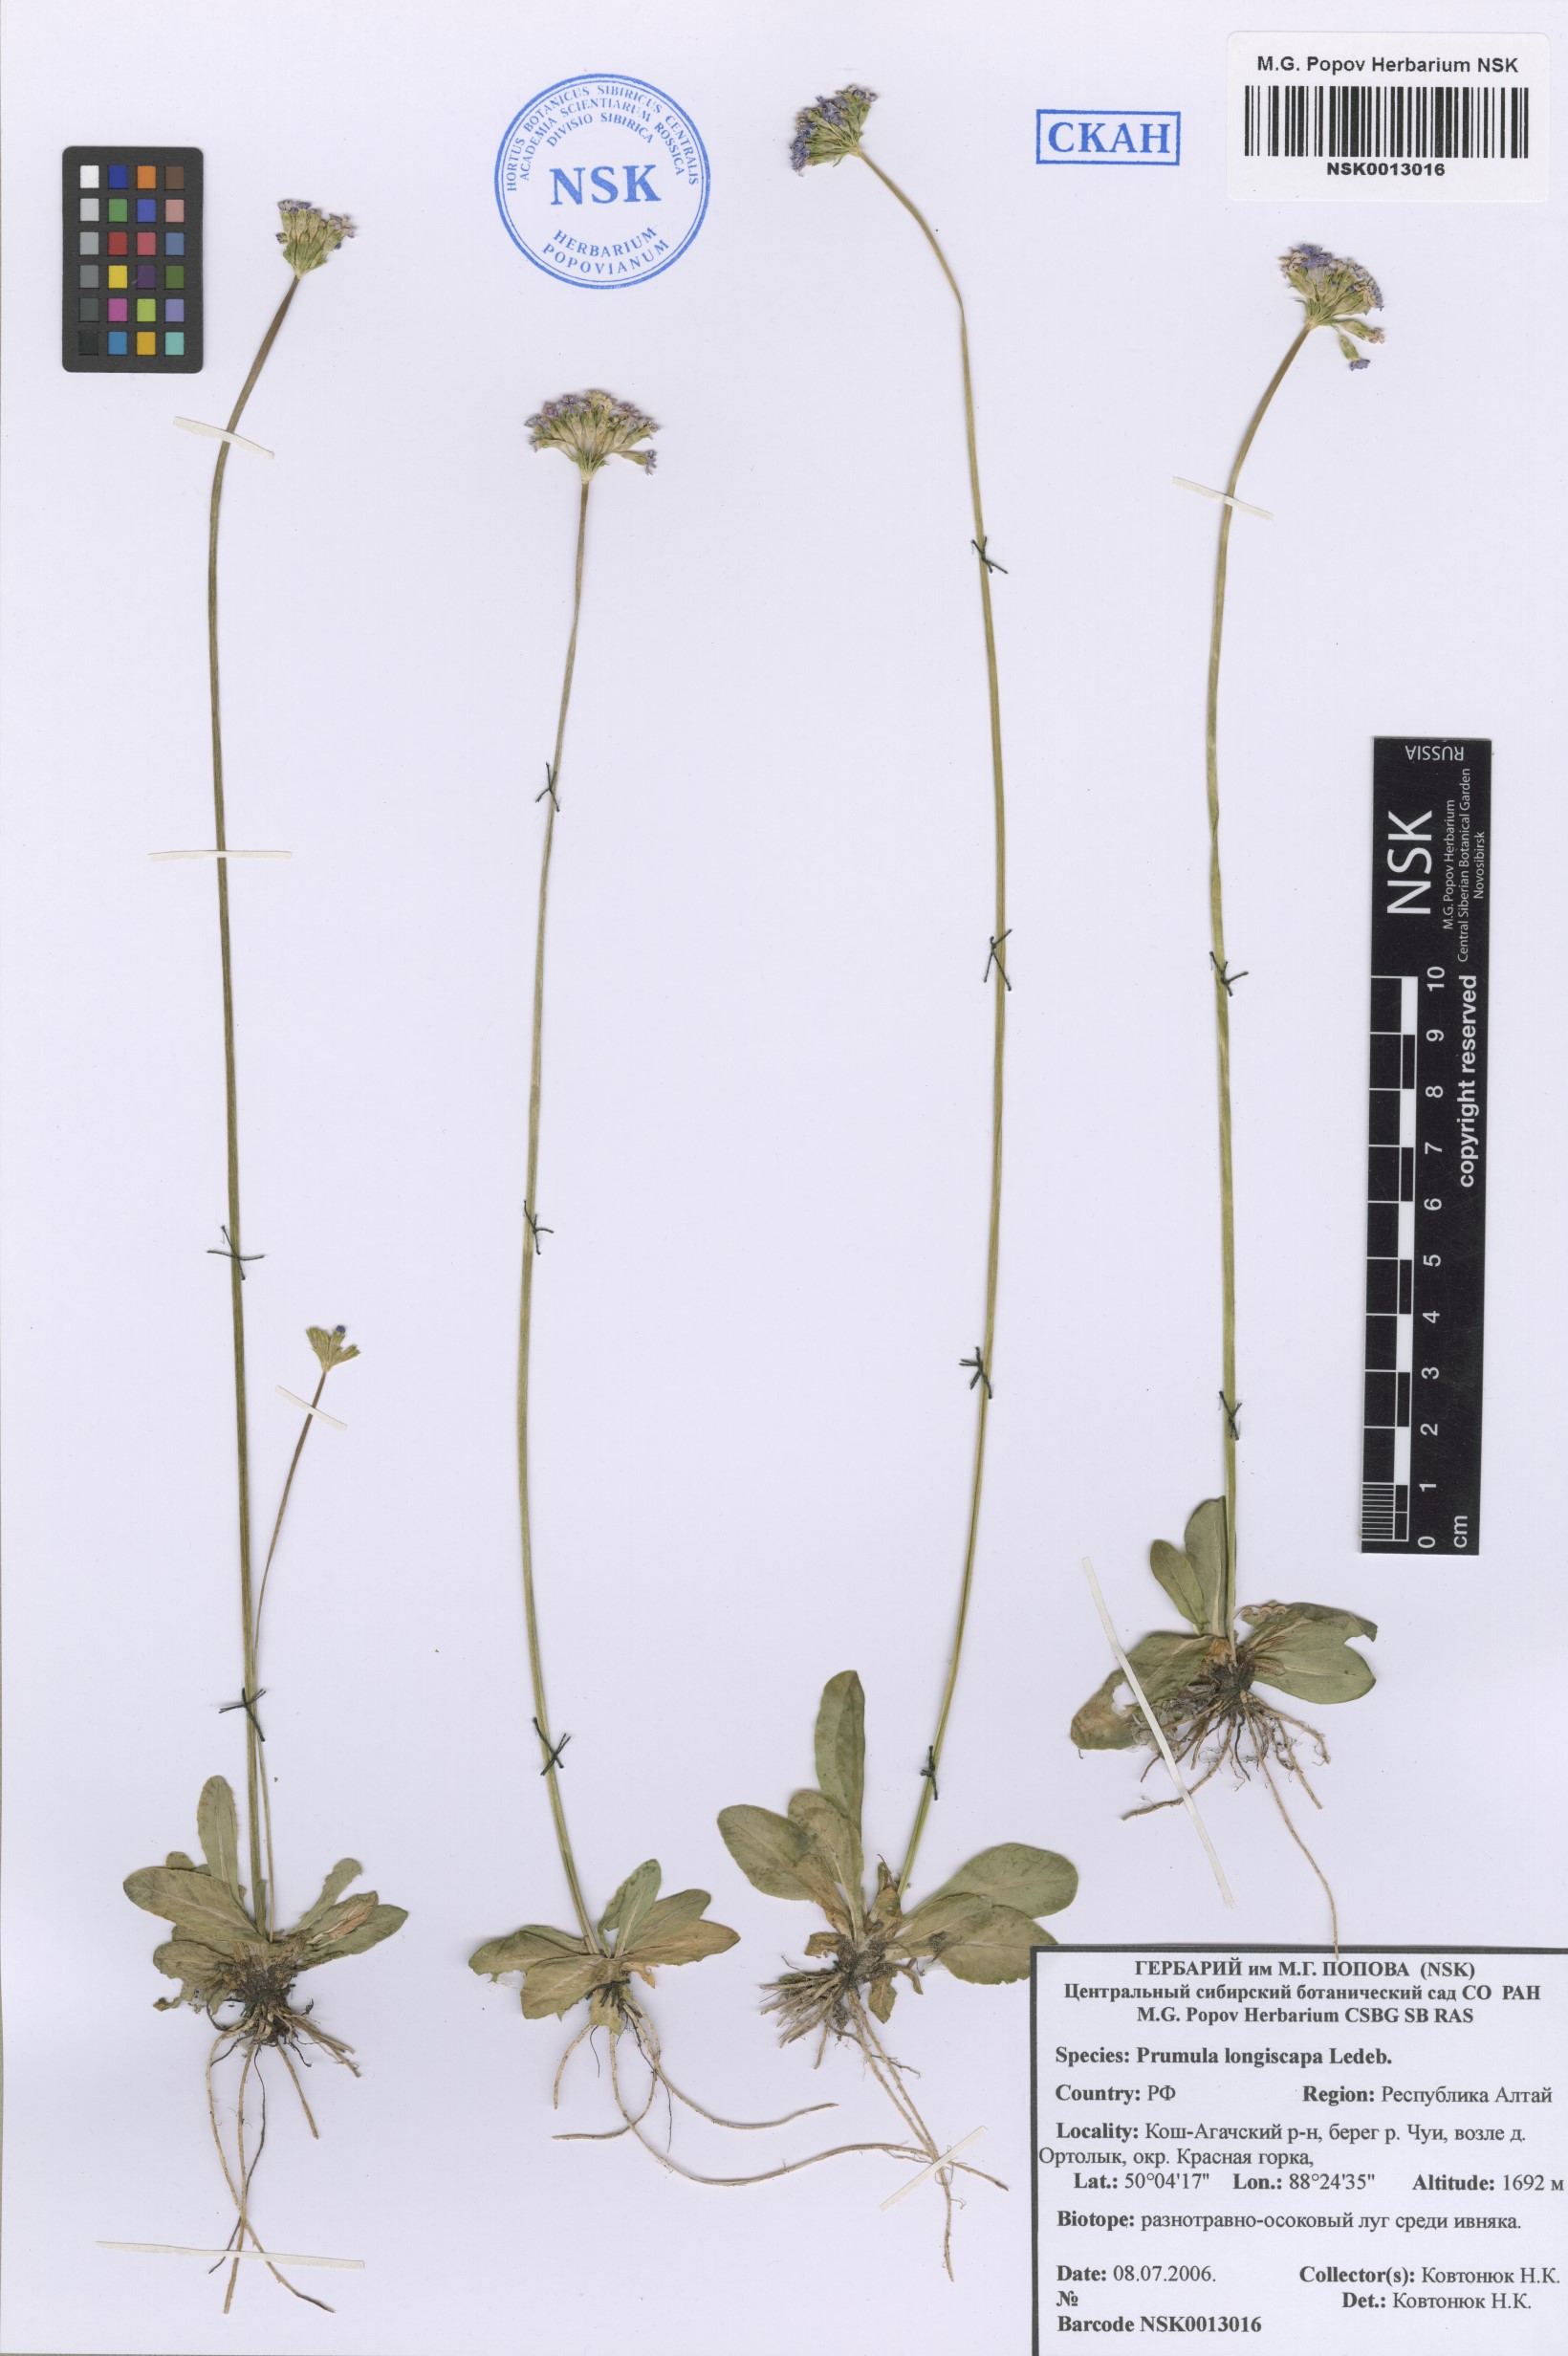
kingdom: Plantae
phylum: Tracheophyta
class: Magnoliopsida
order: Ericales
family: Primulaceae
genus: Primula
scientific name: Primula longiscapa
